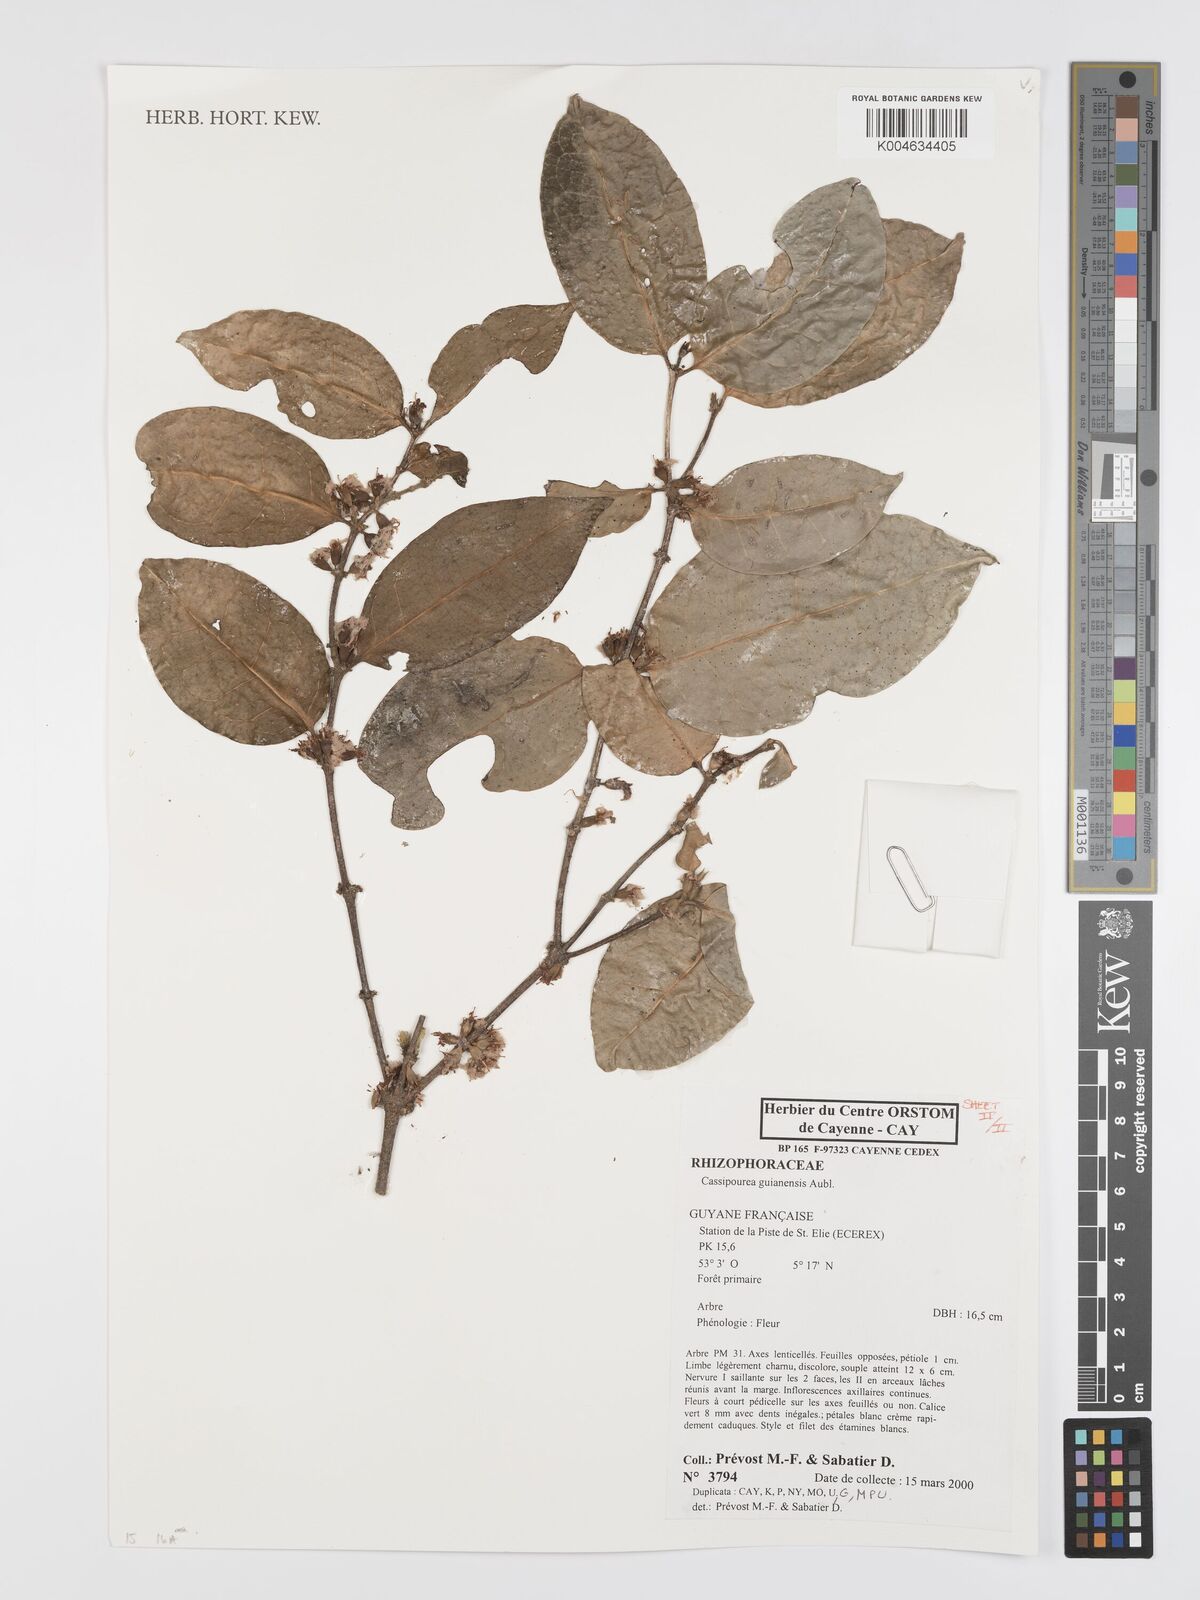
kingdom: Plantae
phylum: Tracheophyta
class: Magnoliopsida
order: Malpighiales
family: Rhizophoraceae
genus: Cassipourea
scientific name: Cassipourea guianensis
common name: Bastard waterwood
